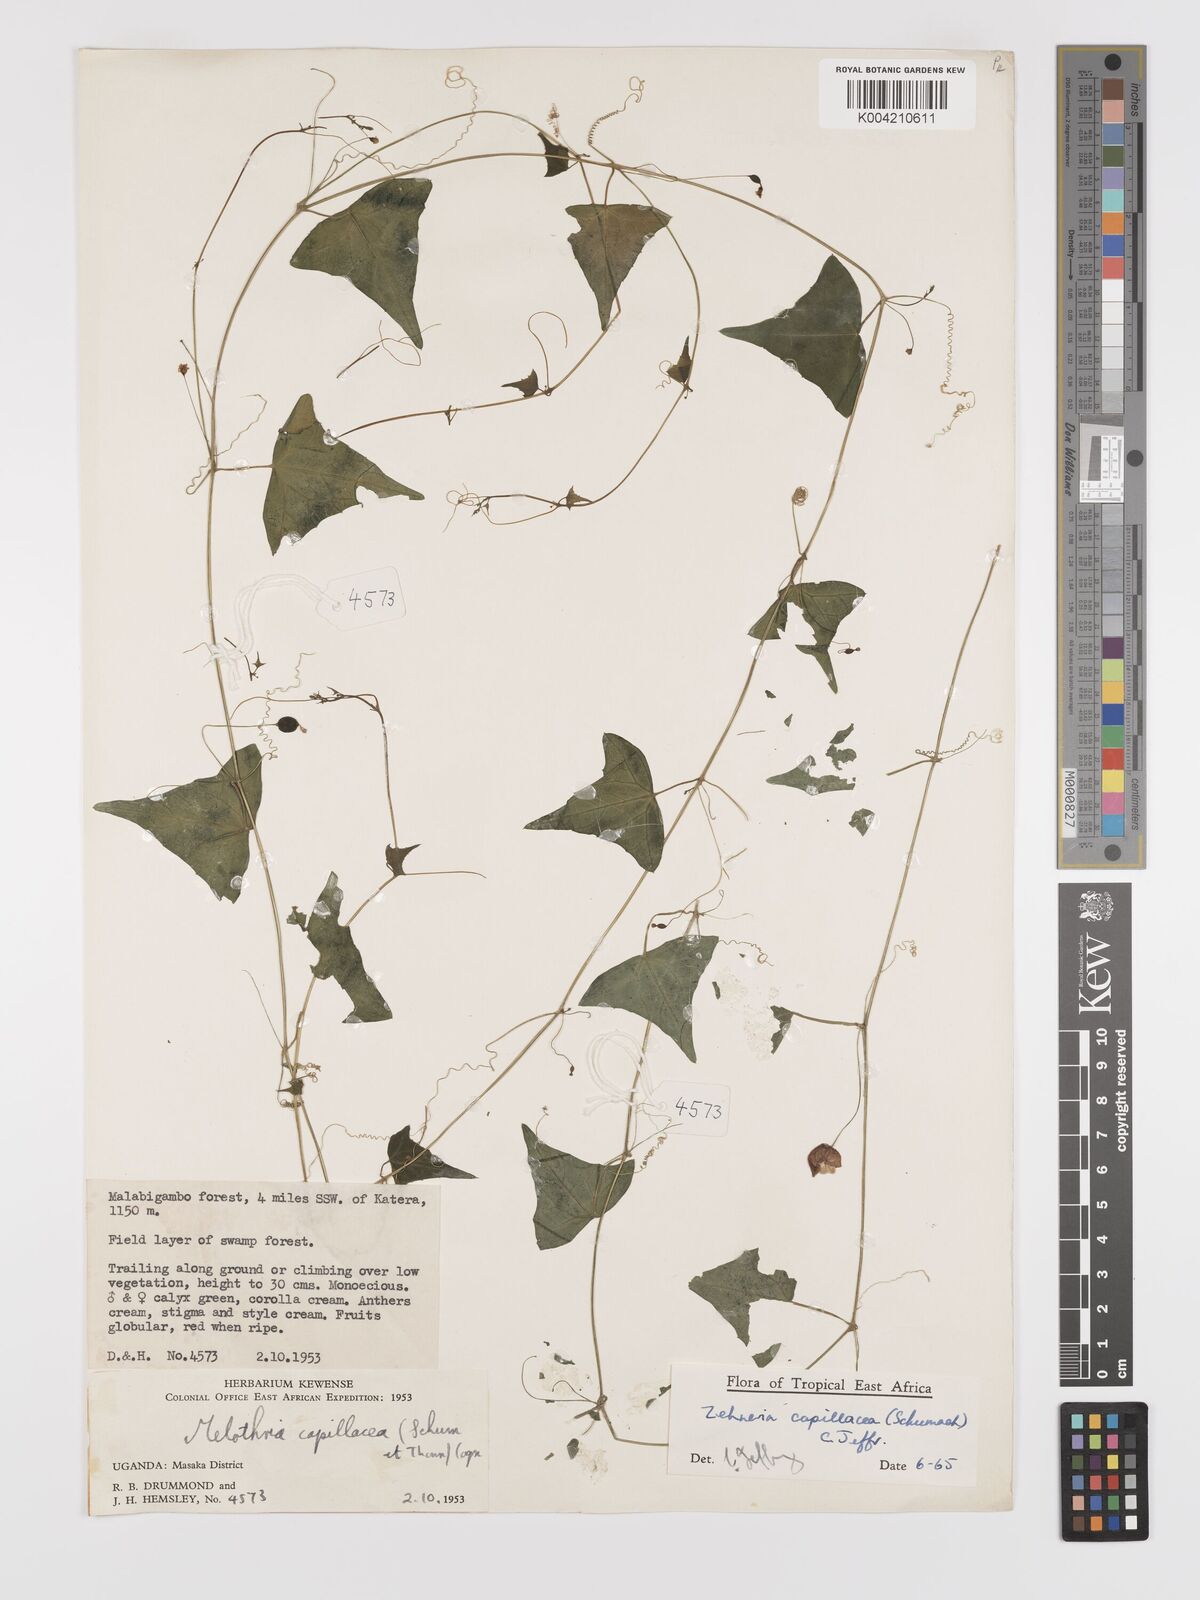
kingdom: Plantae
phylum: Tracheophyta
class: Magnoliopsida
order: Cucurbitales
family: Cucurbitaceae
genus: Zehneria
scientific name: Zehneria capillacea
